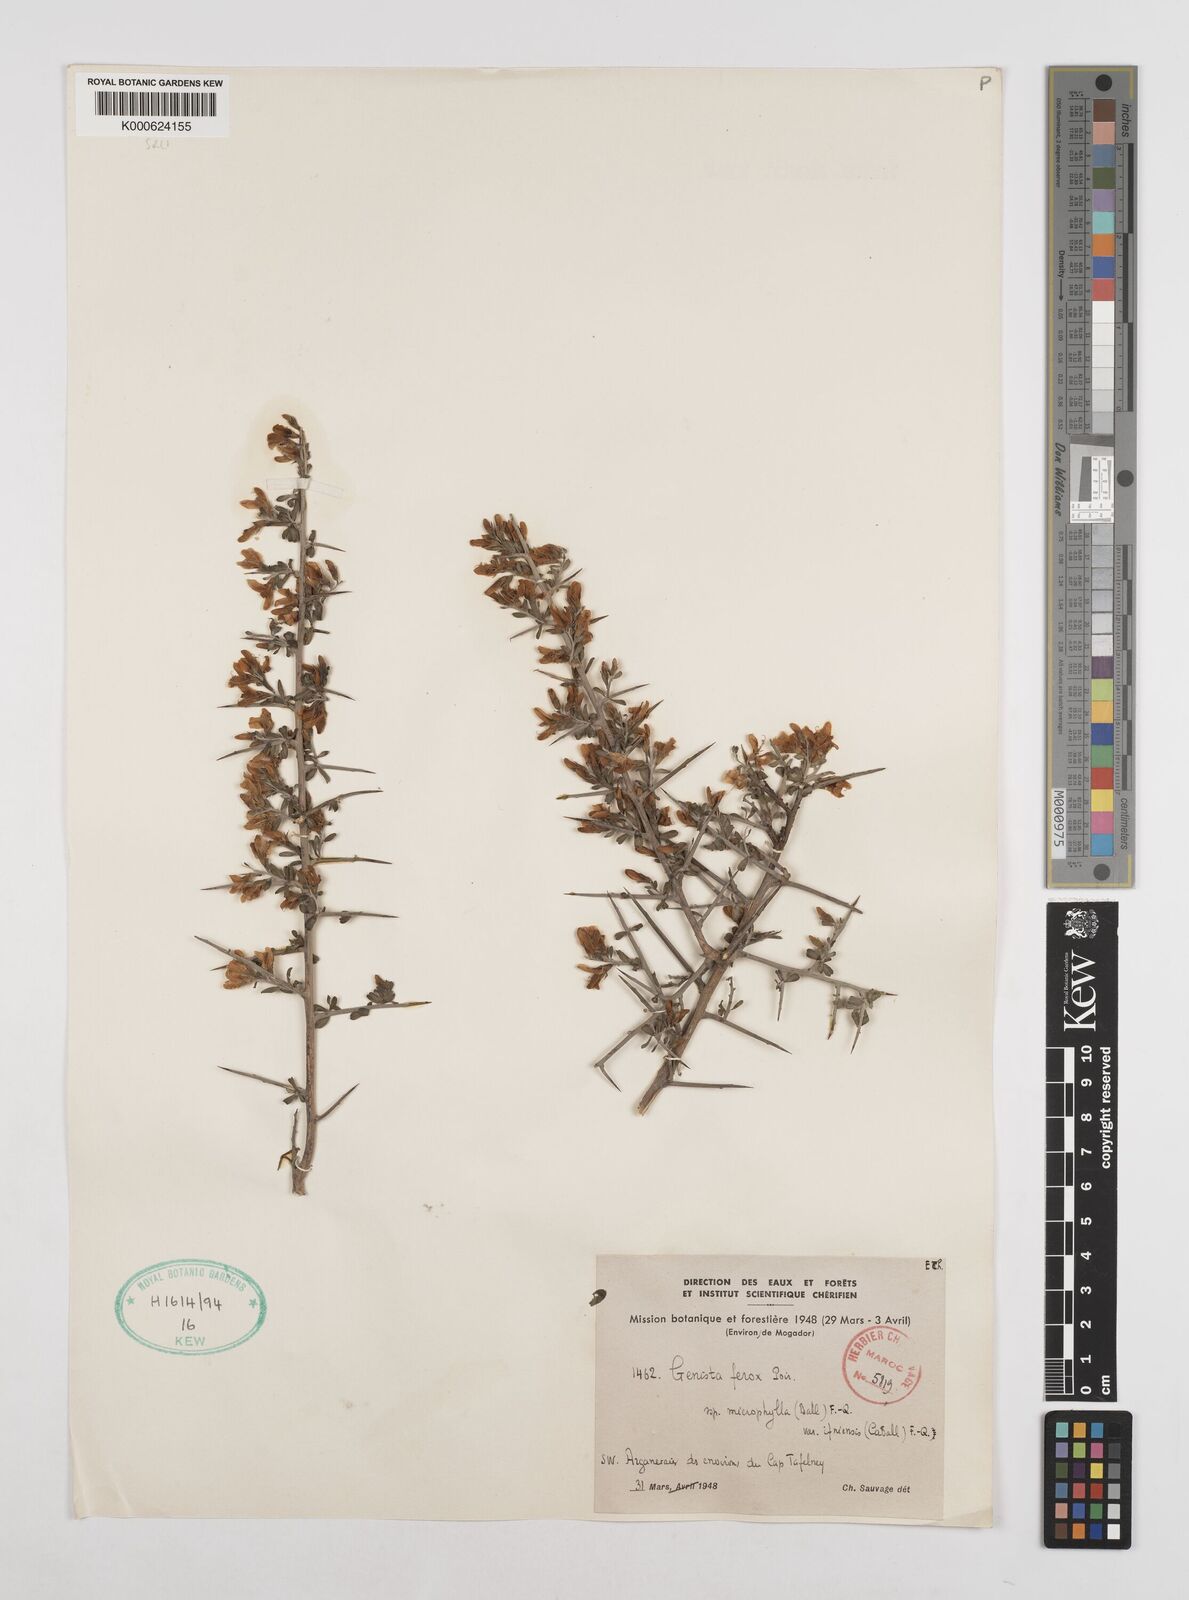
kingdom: Plantae
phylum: Tracheophyta
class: Magnoliopsida
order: Fabales
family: Fabaceae
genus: Genista
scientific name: Genista
